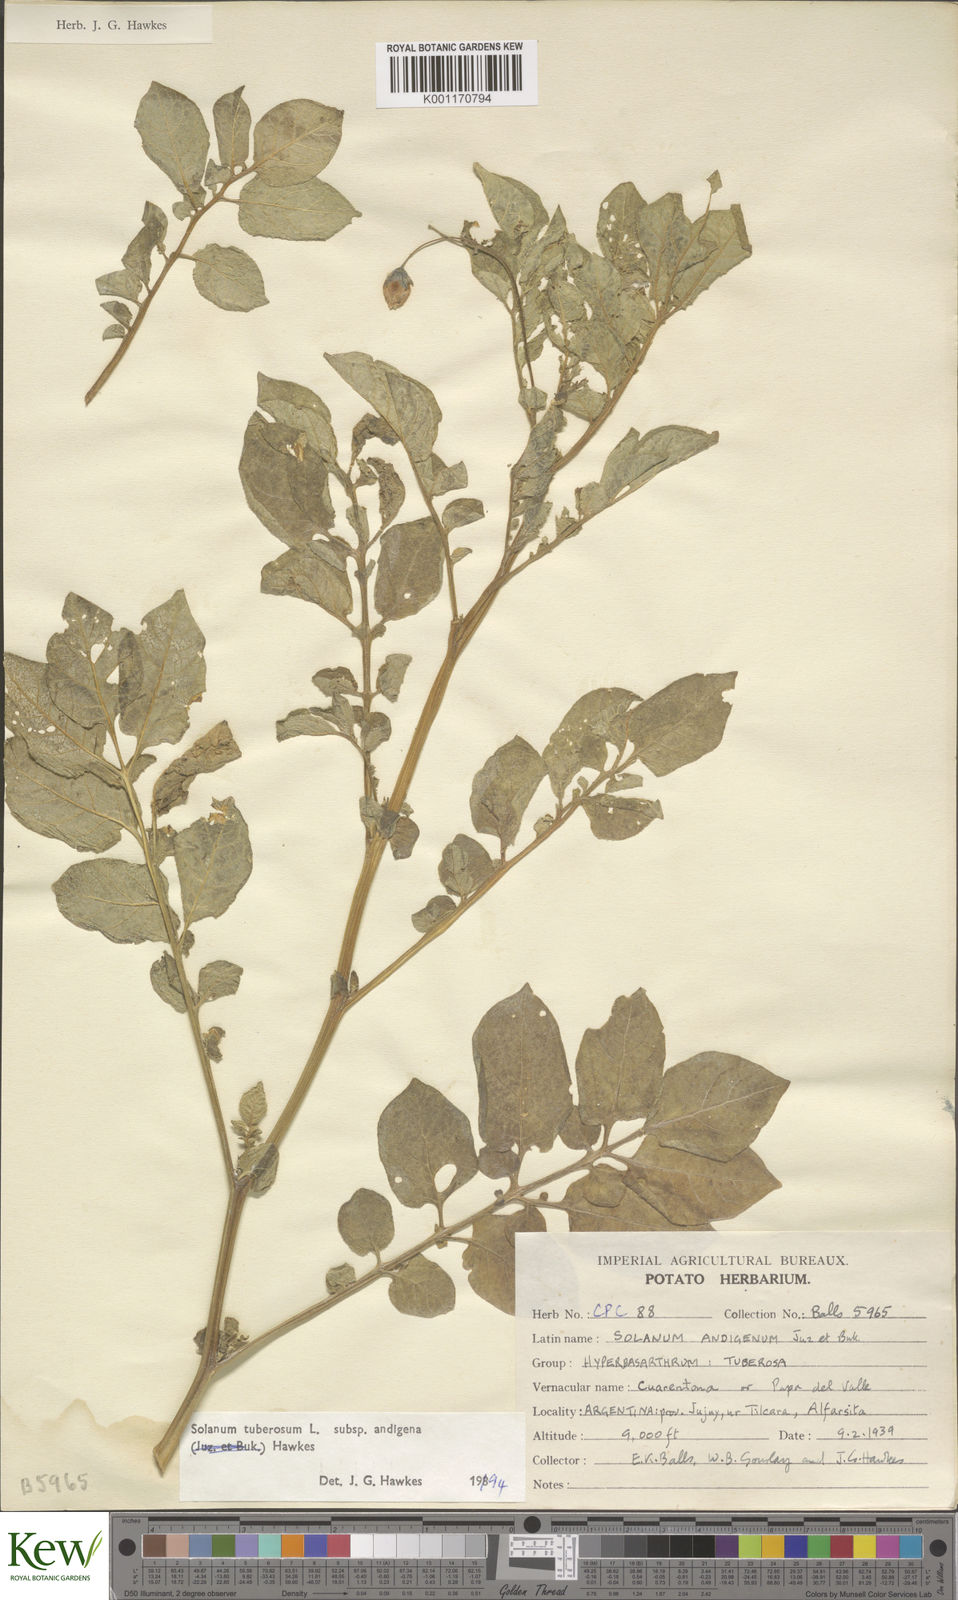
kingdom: Plantae
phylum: Tracheophyta
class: Magnoliopsida
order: Solanales
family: Solanaceae
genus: Solanum
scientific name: Solanum tuberosum
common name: Potato
